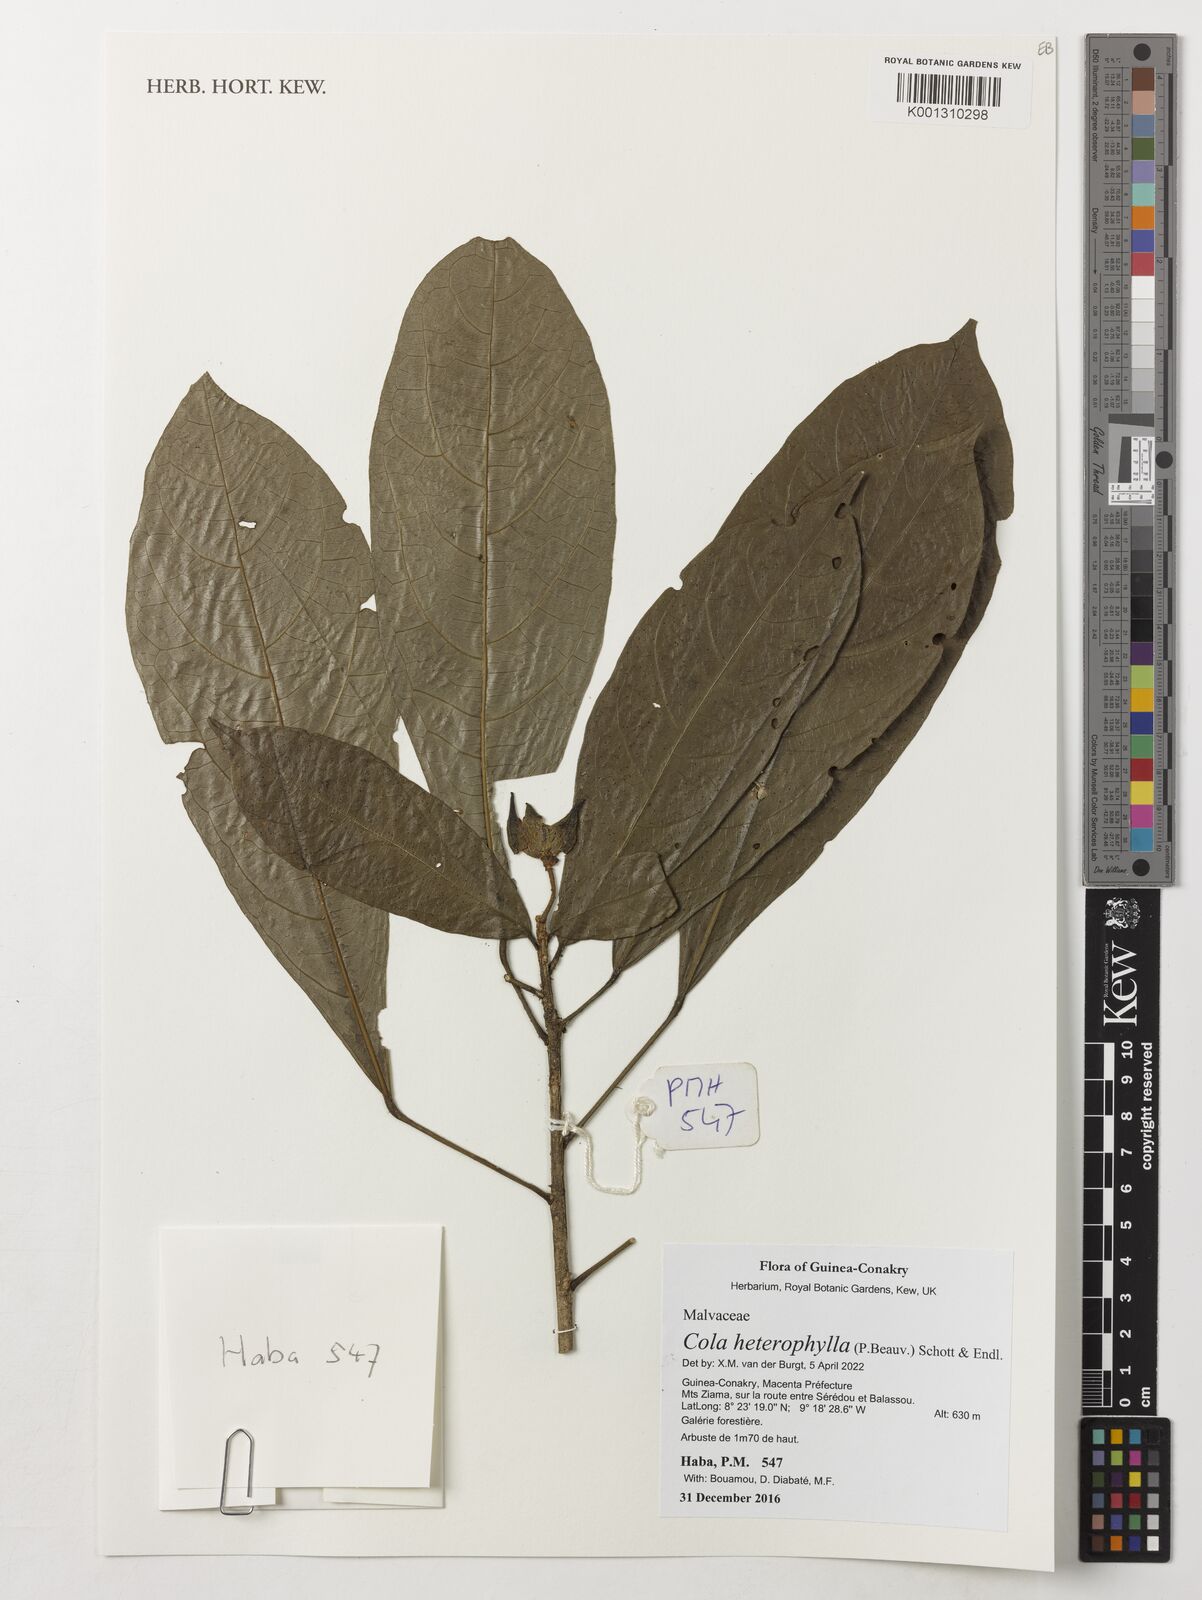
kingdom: Plantae
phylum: Tracheophyta
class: Magnoliopsida
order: Malvales
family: Malvaceae
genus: Cola
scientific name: Cola heterophylla
